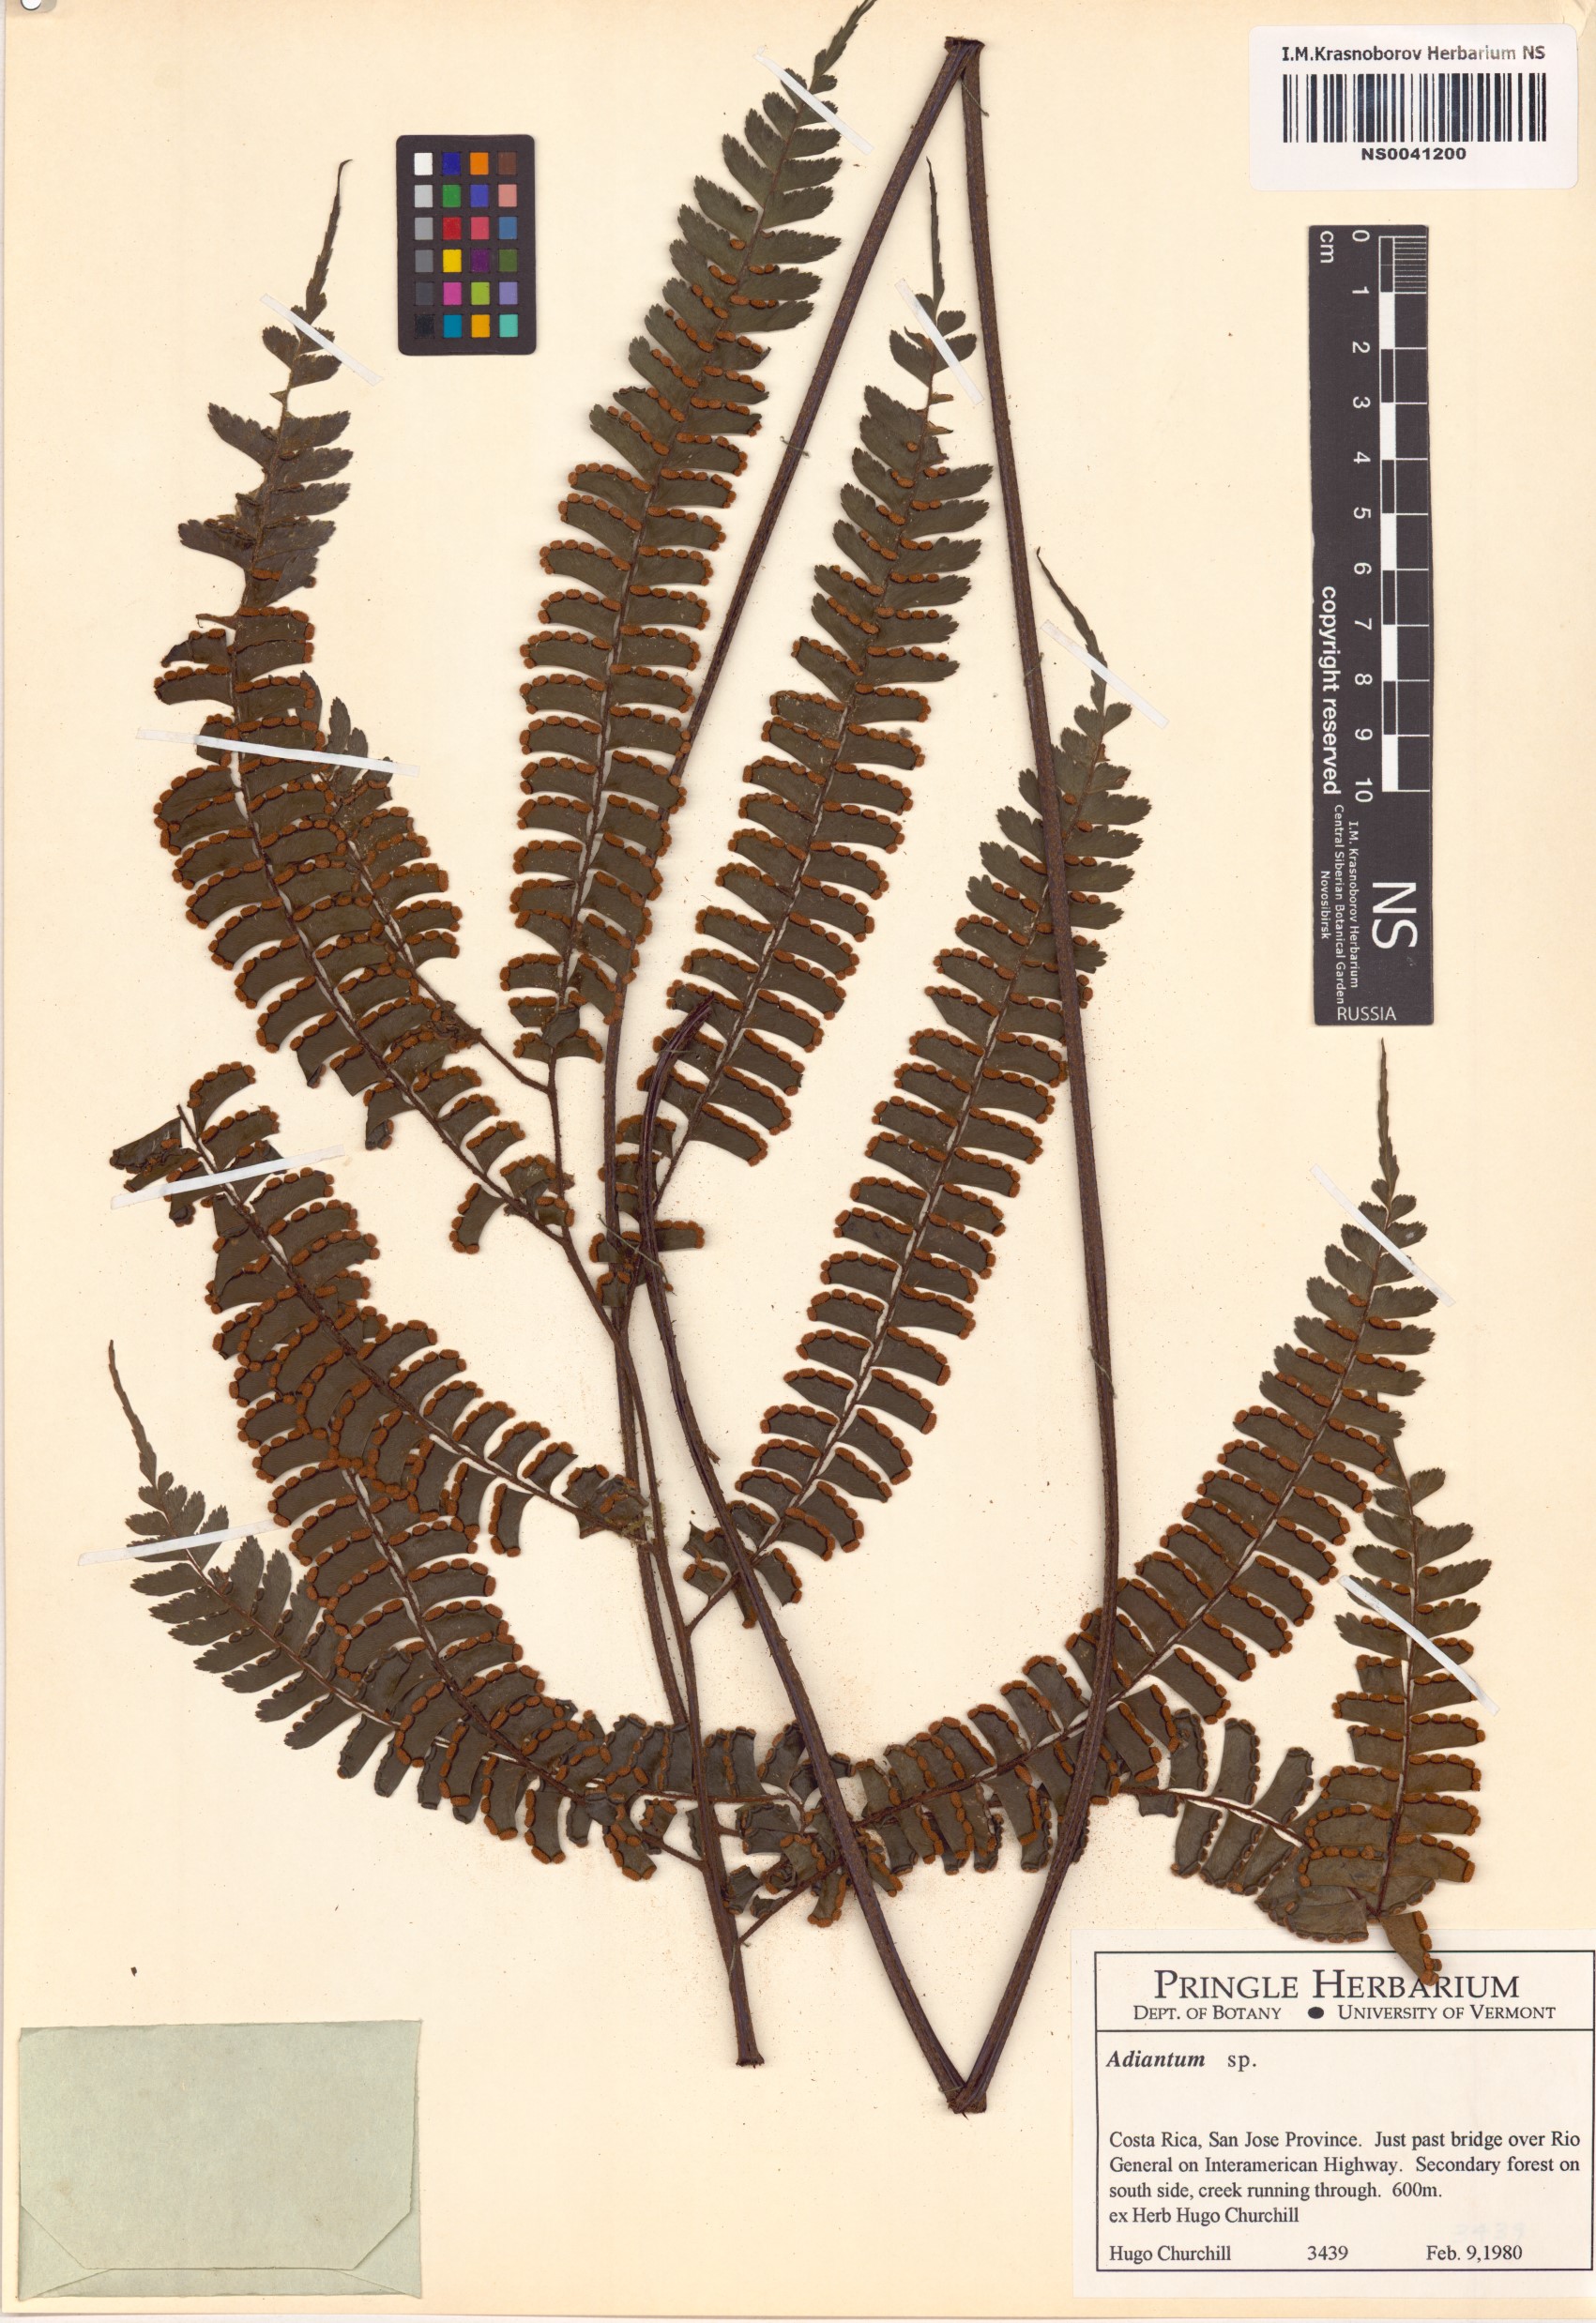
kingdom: Plantae
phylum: Tracheophyta
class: Polypodiopsida
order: Polypodiales
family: Pteridaceae
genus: Adiantum
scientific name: Adiantum
